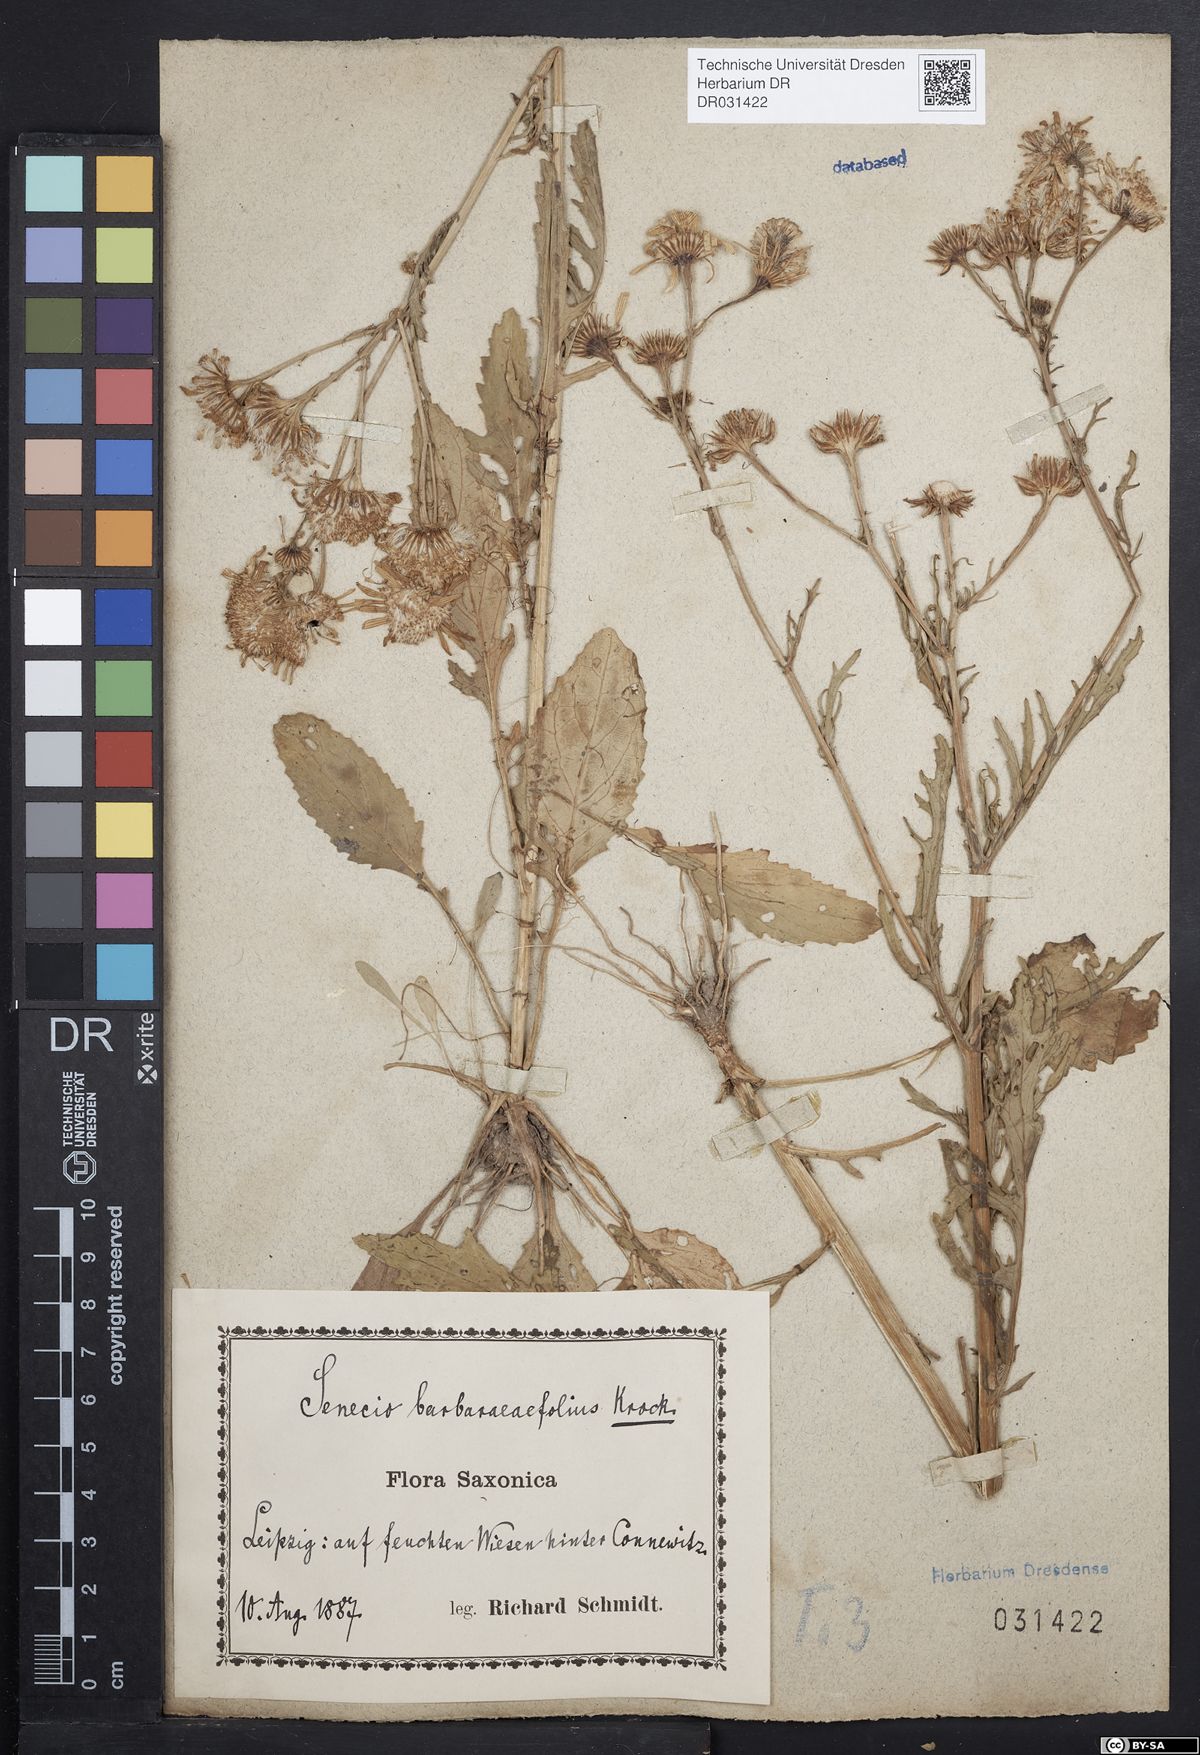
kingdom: Plantae
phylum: Tracheophyta
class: Magnoliopsida
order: Asterales
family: Asteraceae
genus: Jacobaea
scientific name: Jacobaea aquatica
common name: Water ragwort
